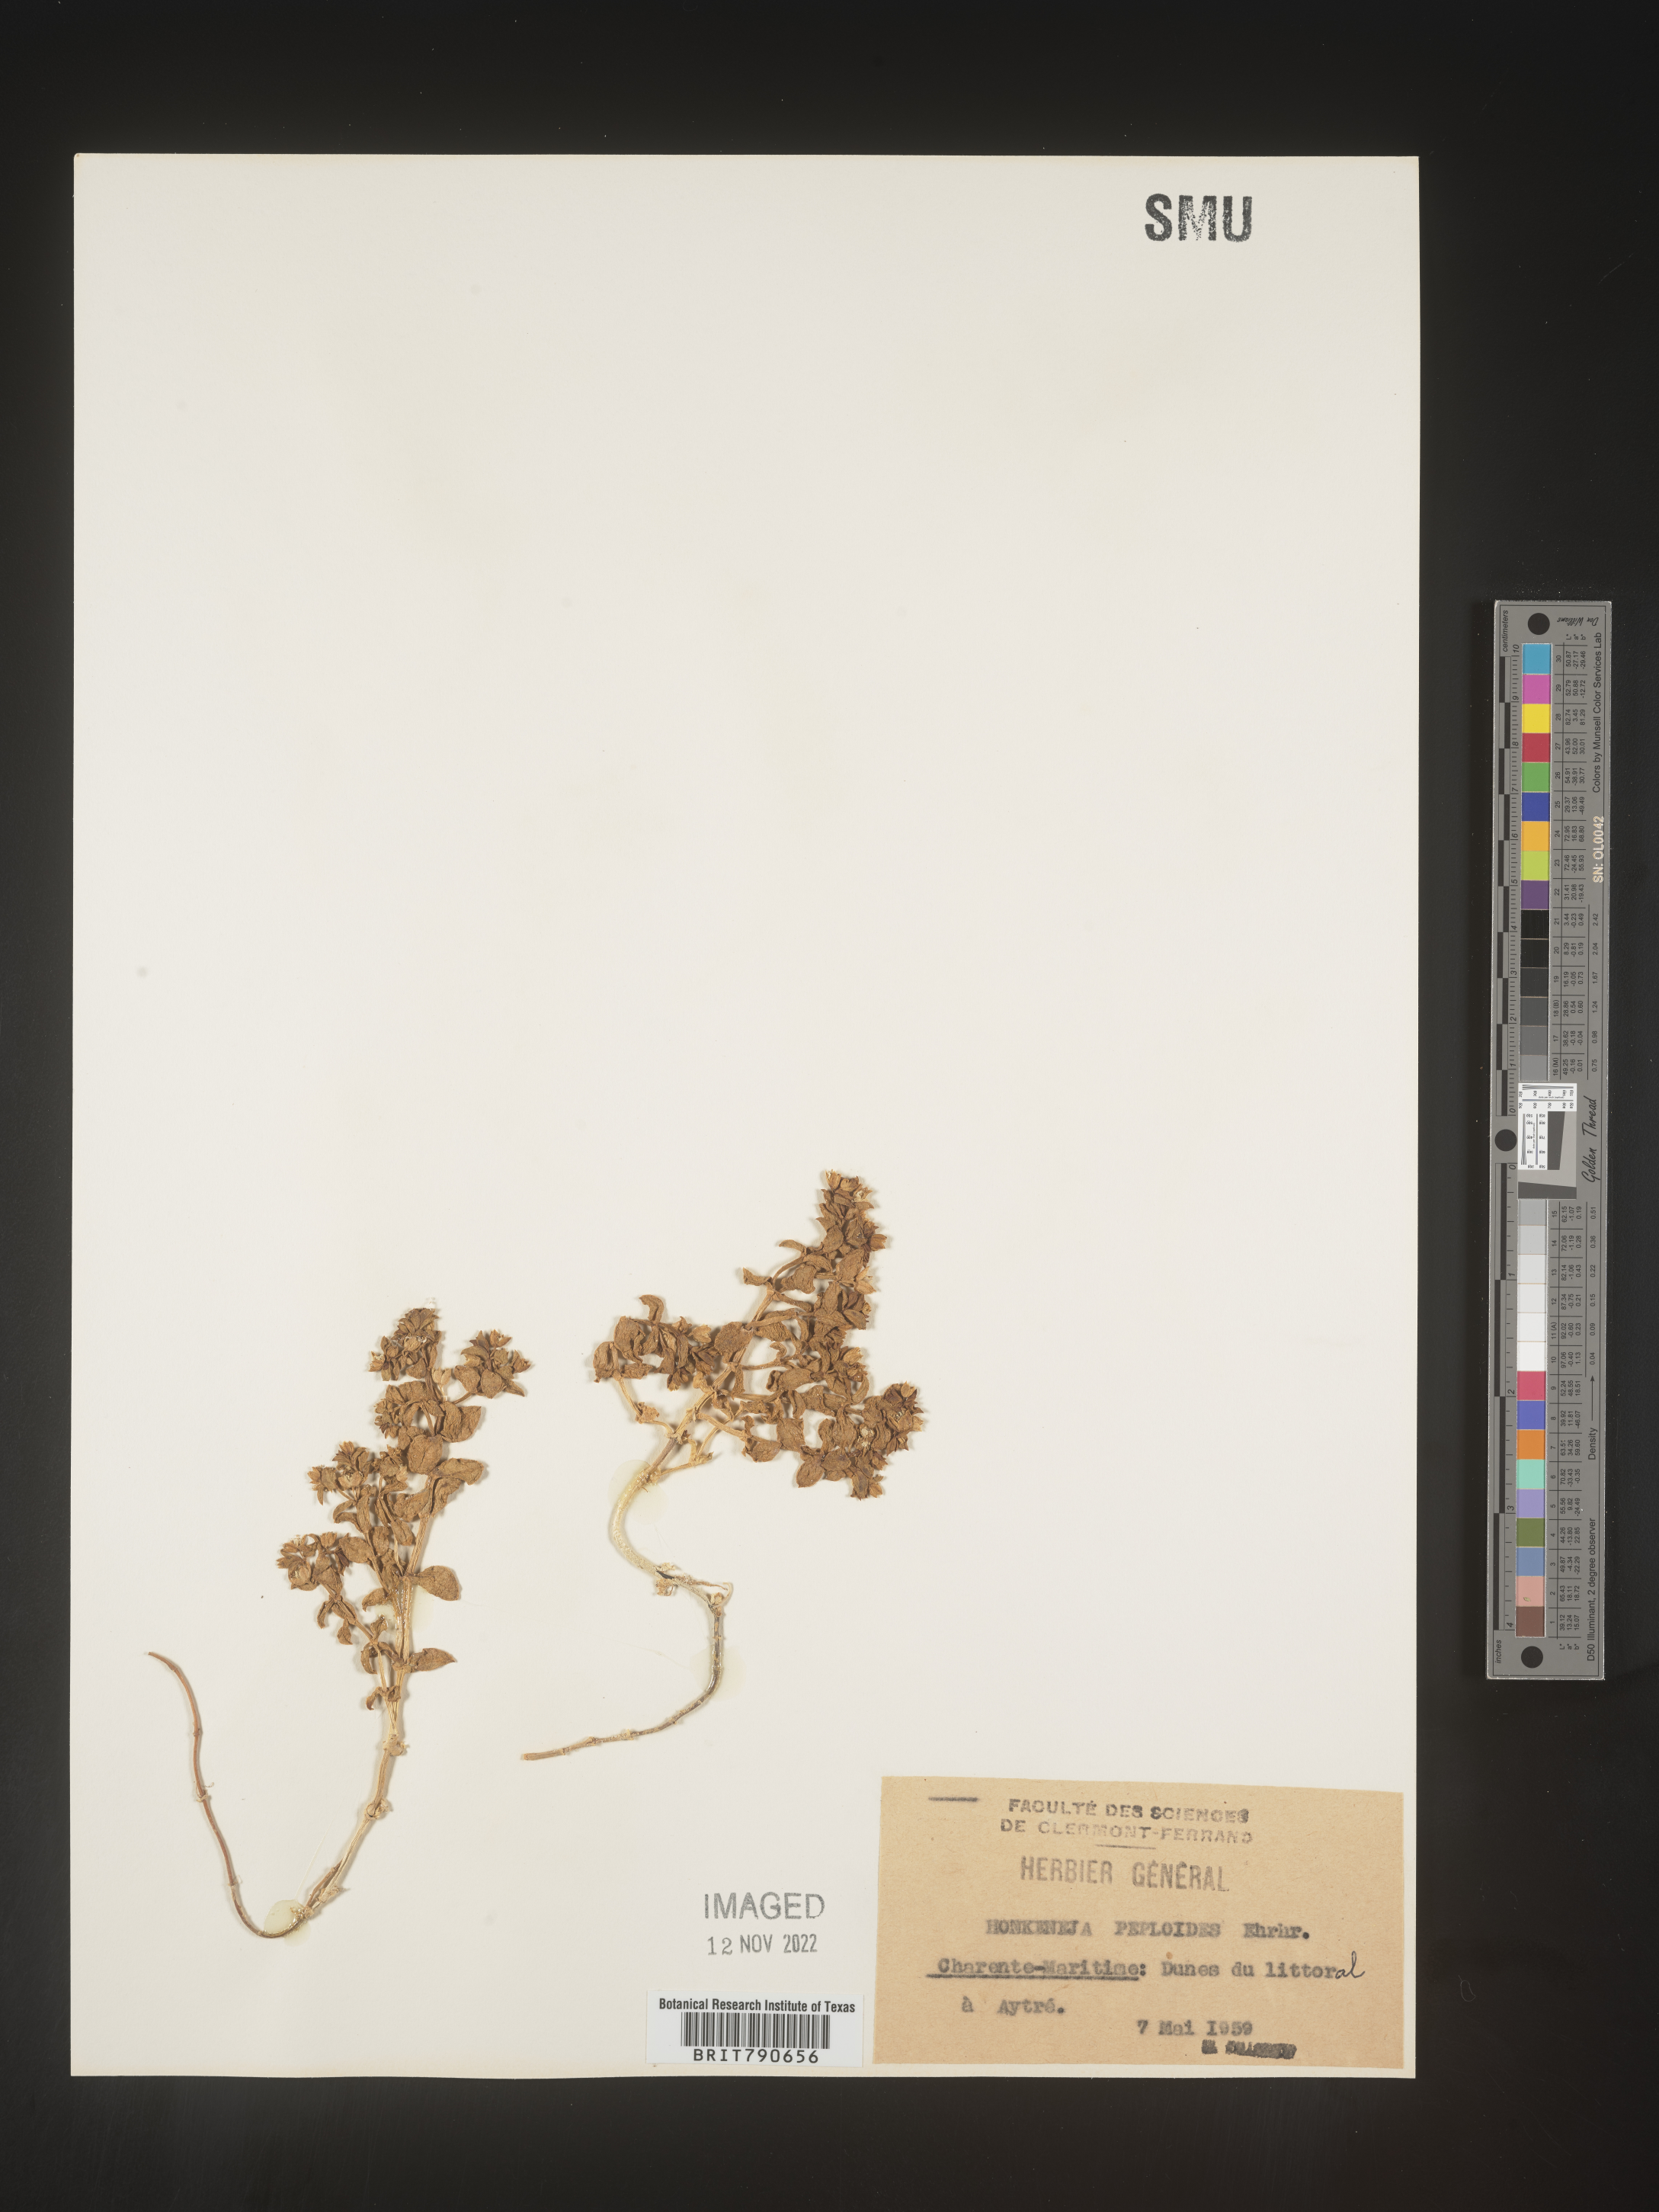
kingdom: Plantae
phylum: Tracheophyta
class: Magnoliopsida
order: Malvales
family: Malvaceae
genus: Clappertonia
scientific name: Clappertonia
